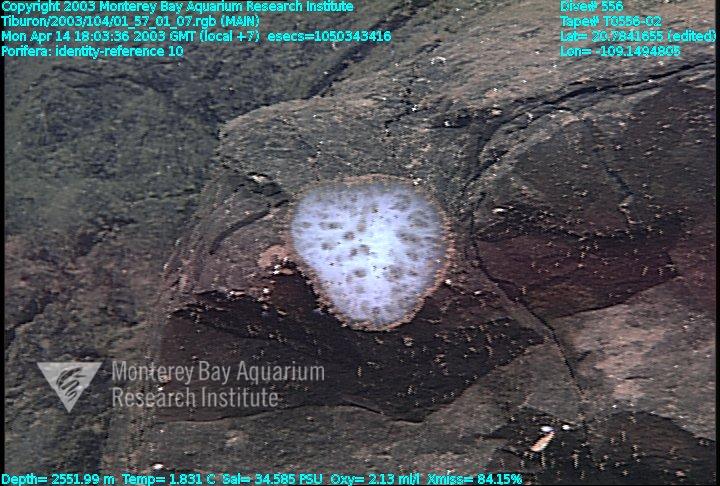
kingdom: Animalia
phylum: Porifera
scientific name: Porifera
